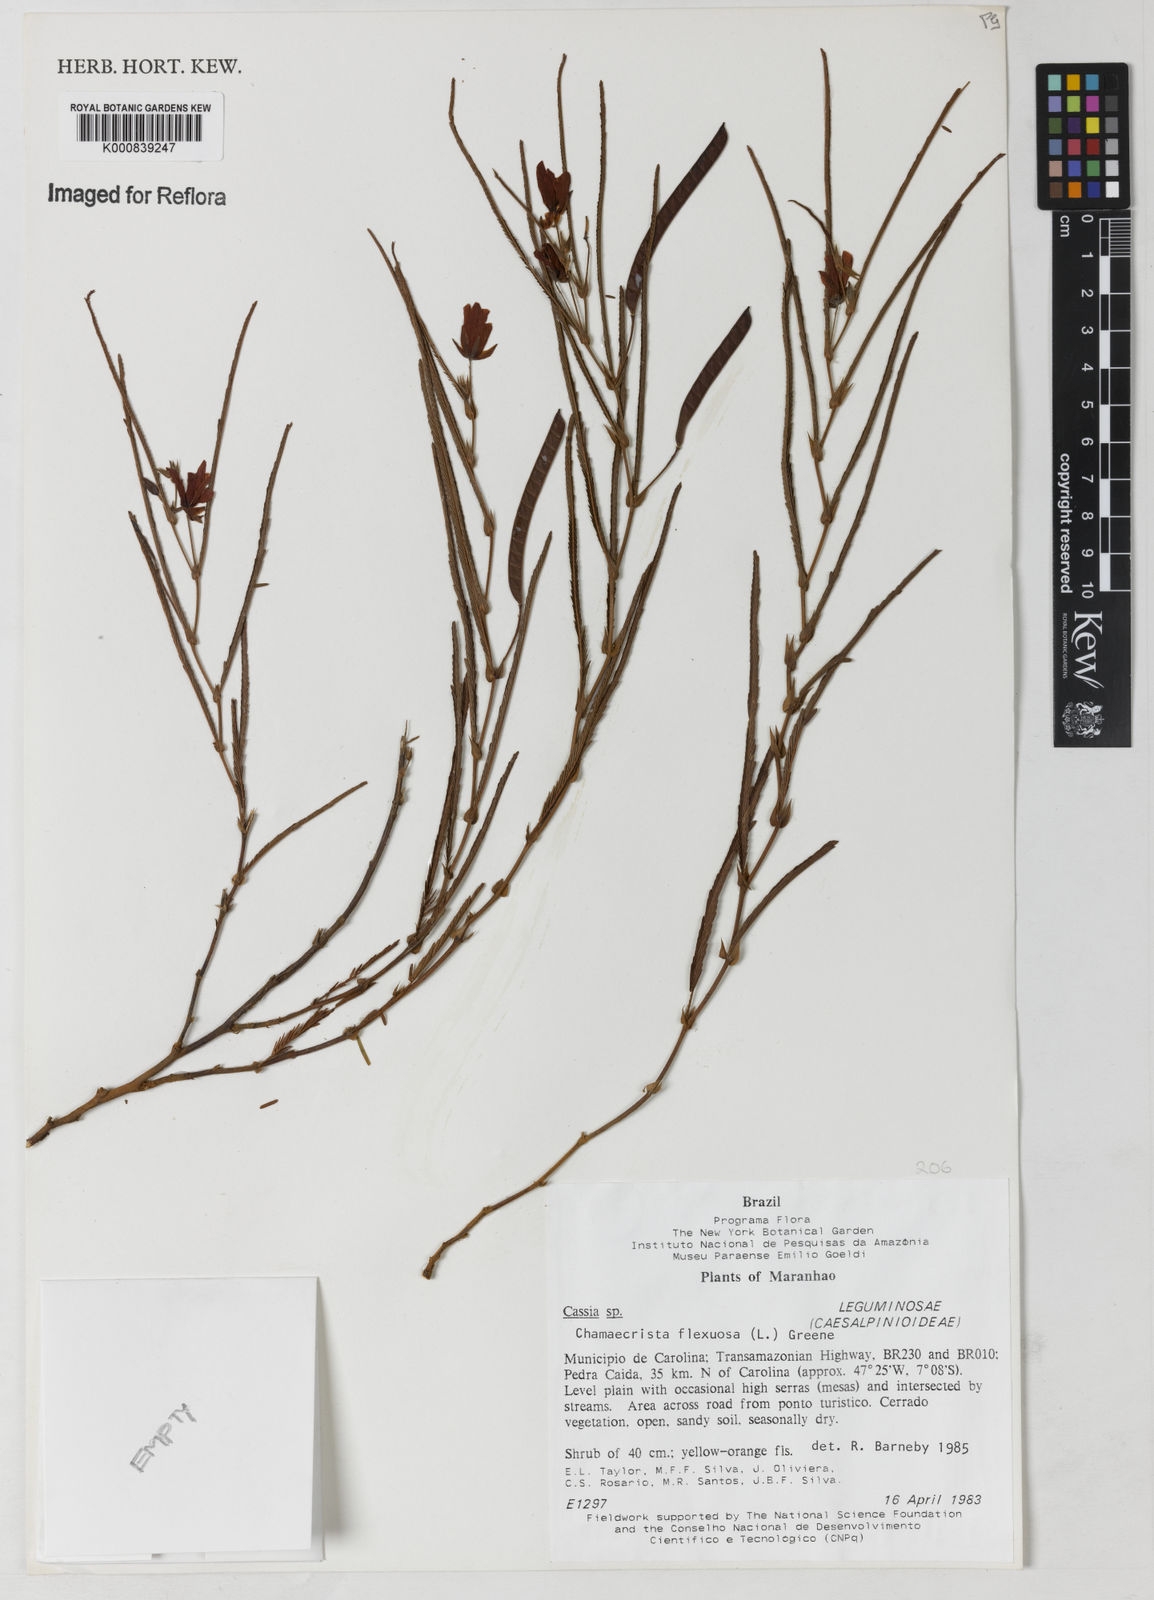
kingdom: Plantae
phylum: Tracheophyta
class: Magnoliopsida
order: Fabales
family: Fabaceae
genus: Chamaecrista
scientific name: Chamaecrista flexuosa
